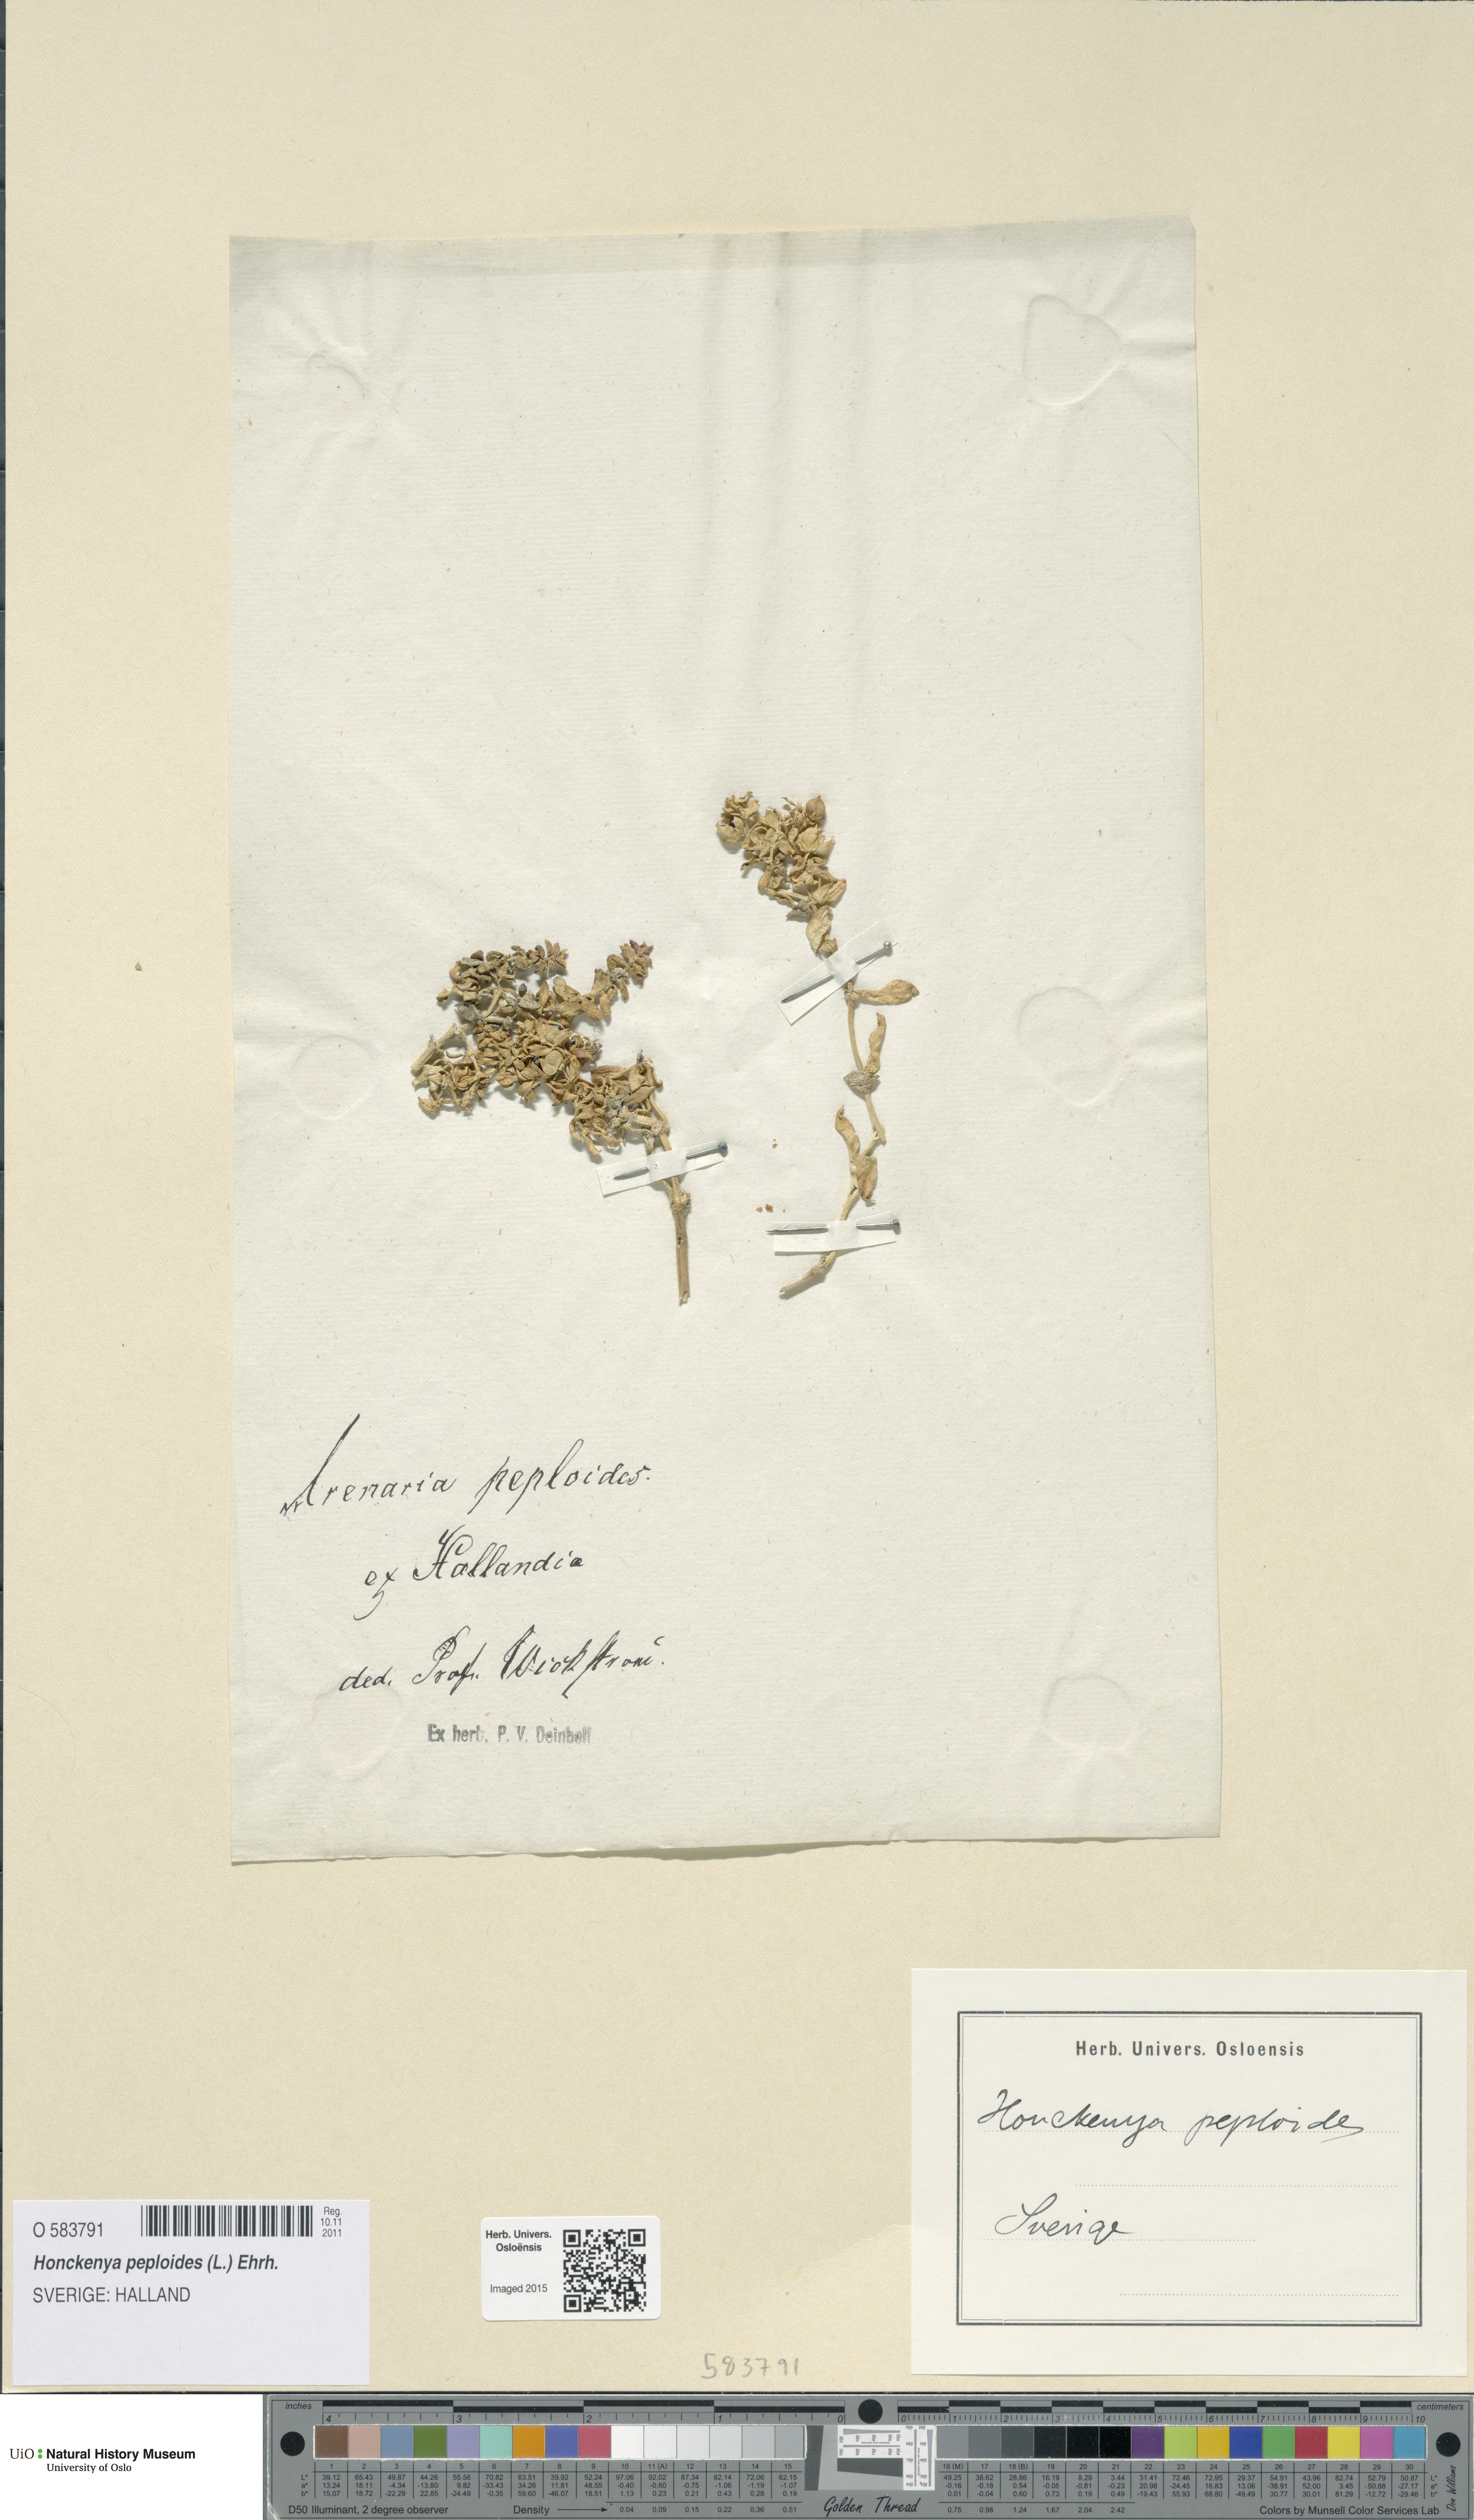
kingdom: Plantae
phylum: Tracheophyta
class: Magnoliopsida
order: Caryophyllales
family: Caryophyllaceae
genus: Honckenya
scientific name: Honckenya peploides
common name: Sea sandwort
